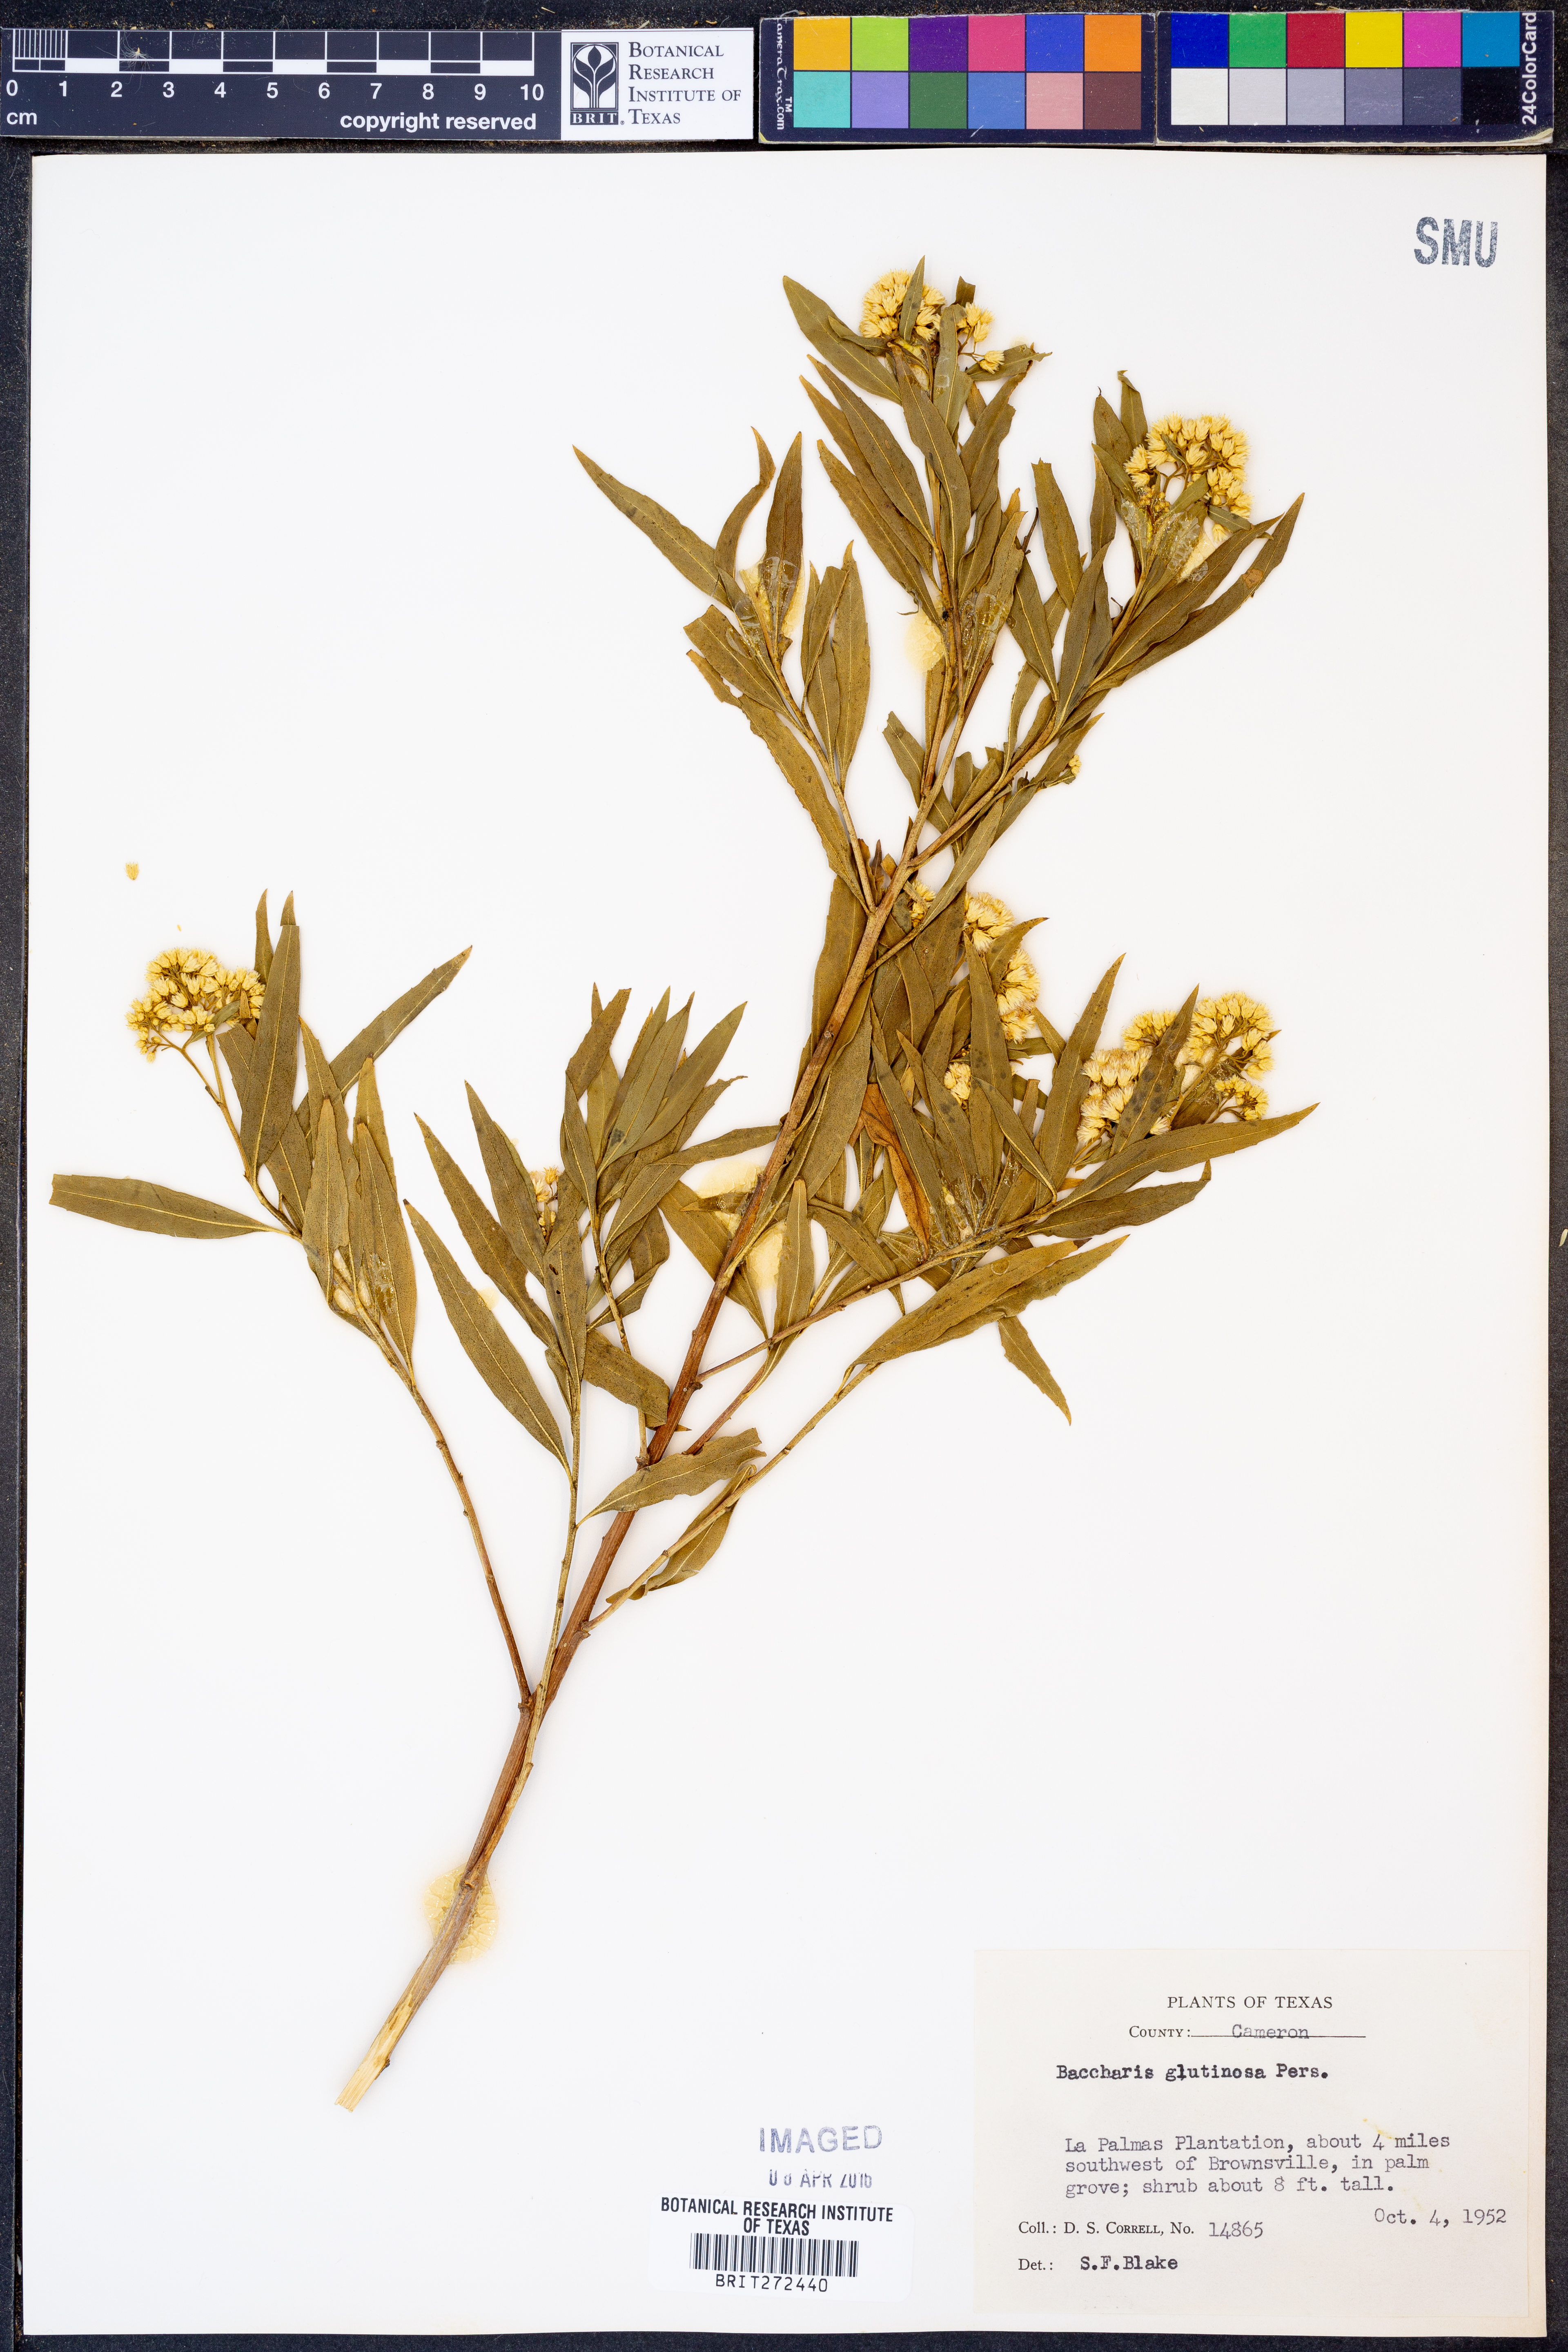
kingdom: Plantae
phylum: Tracheophyta
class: Magnoliopsida
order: Asterales
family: Asteraceae
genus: Baccharis
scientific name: Baccharis glutinosa
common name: Saltmarsh baccharis
